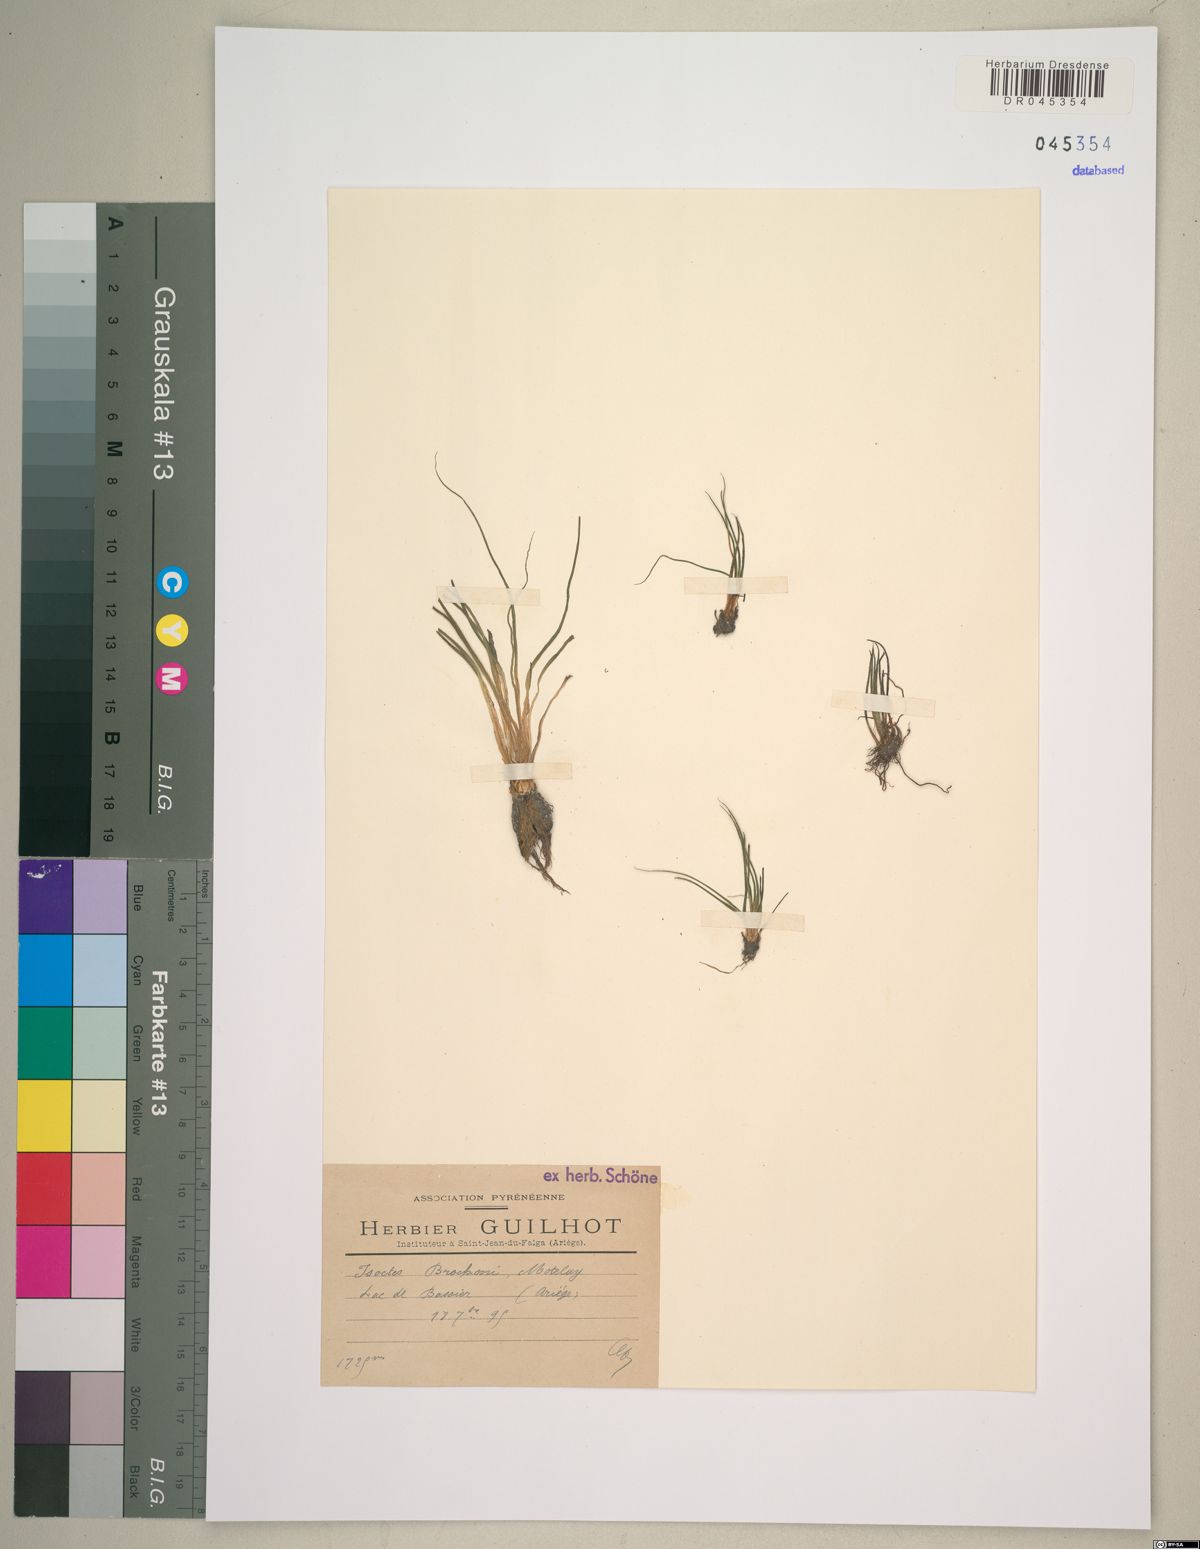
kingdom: Plantae
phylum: Tracheophyta
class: Lycopodiopsida
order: Isoetales
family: Isoetaceae
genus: Isoetes
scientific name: Isoetes lacustris
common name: Common quillwort
